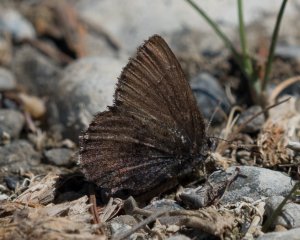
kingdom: Animalia
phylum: Arthropoda
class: Insecta
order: Lepidoptera
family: Lycaenidae
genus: Incisalia
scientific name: Incisalia irioides
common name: Brown Elfin
